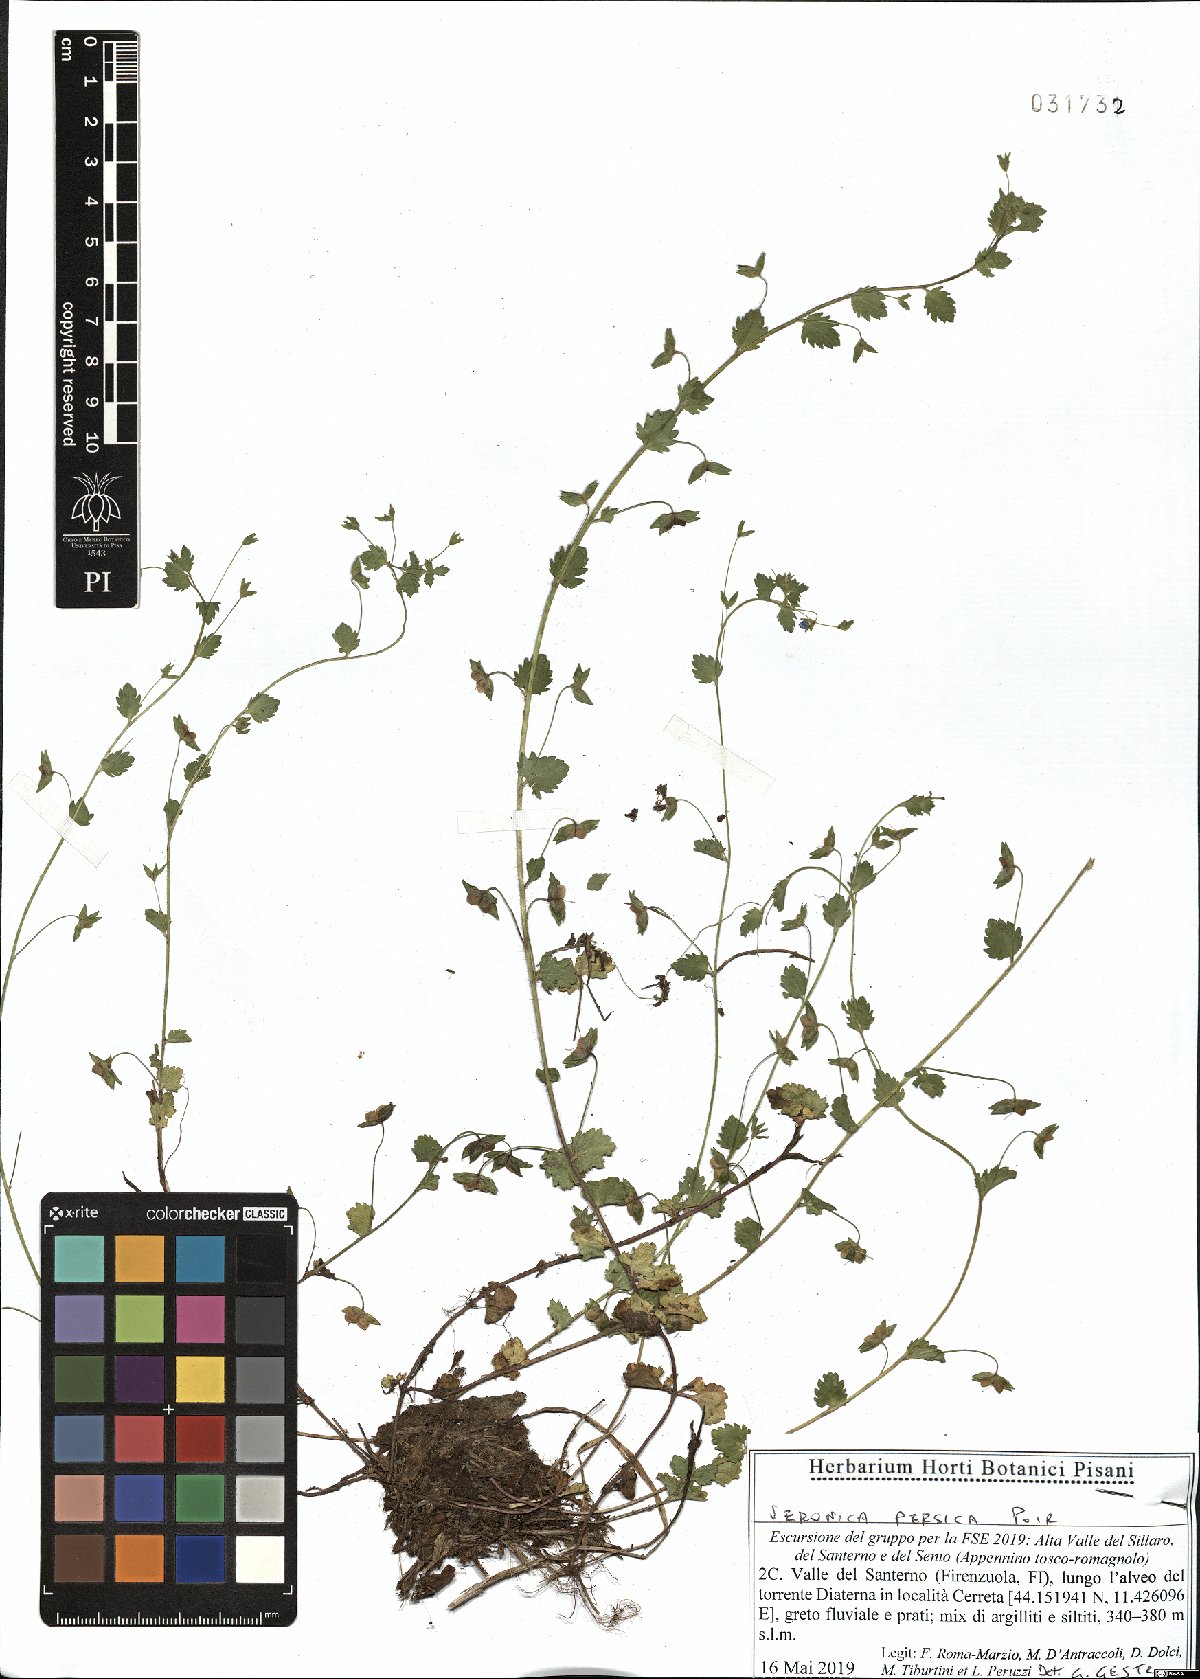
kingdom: Plantae
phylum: Tracheophyta
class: Magnoliopsida
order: Lamiales
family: Plantaginaceae
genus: Veronica
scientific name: Veronica persica
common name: Common field-speedwell
